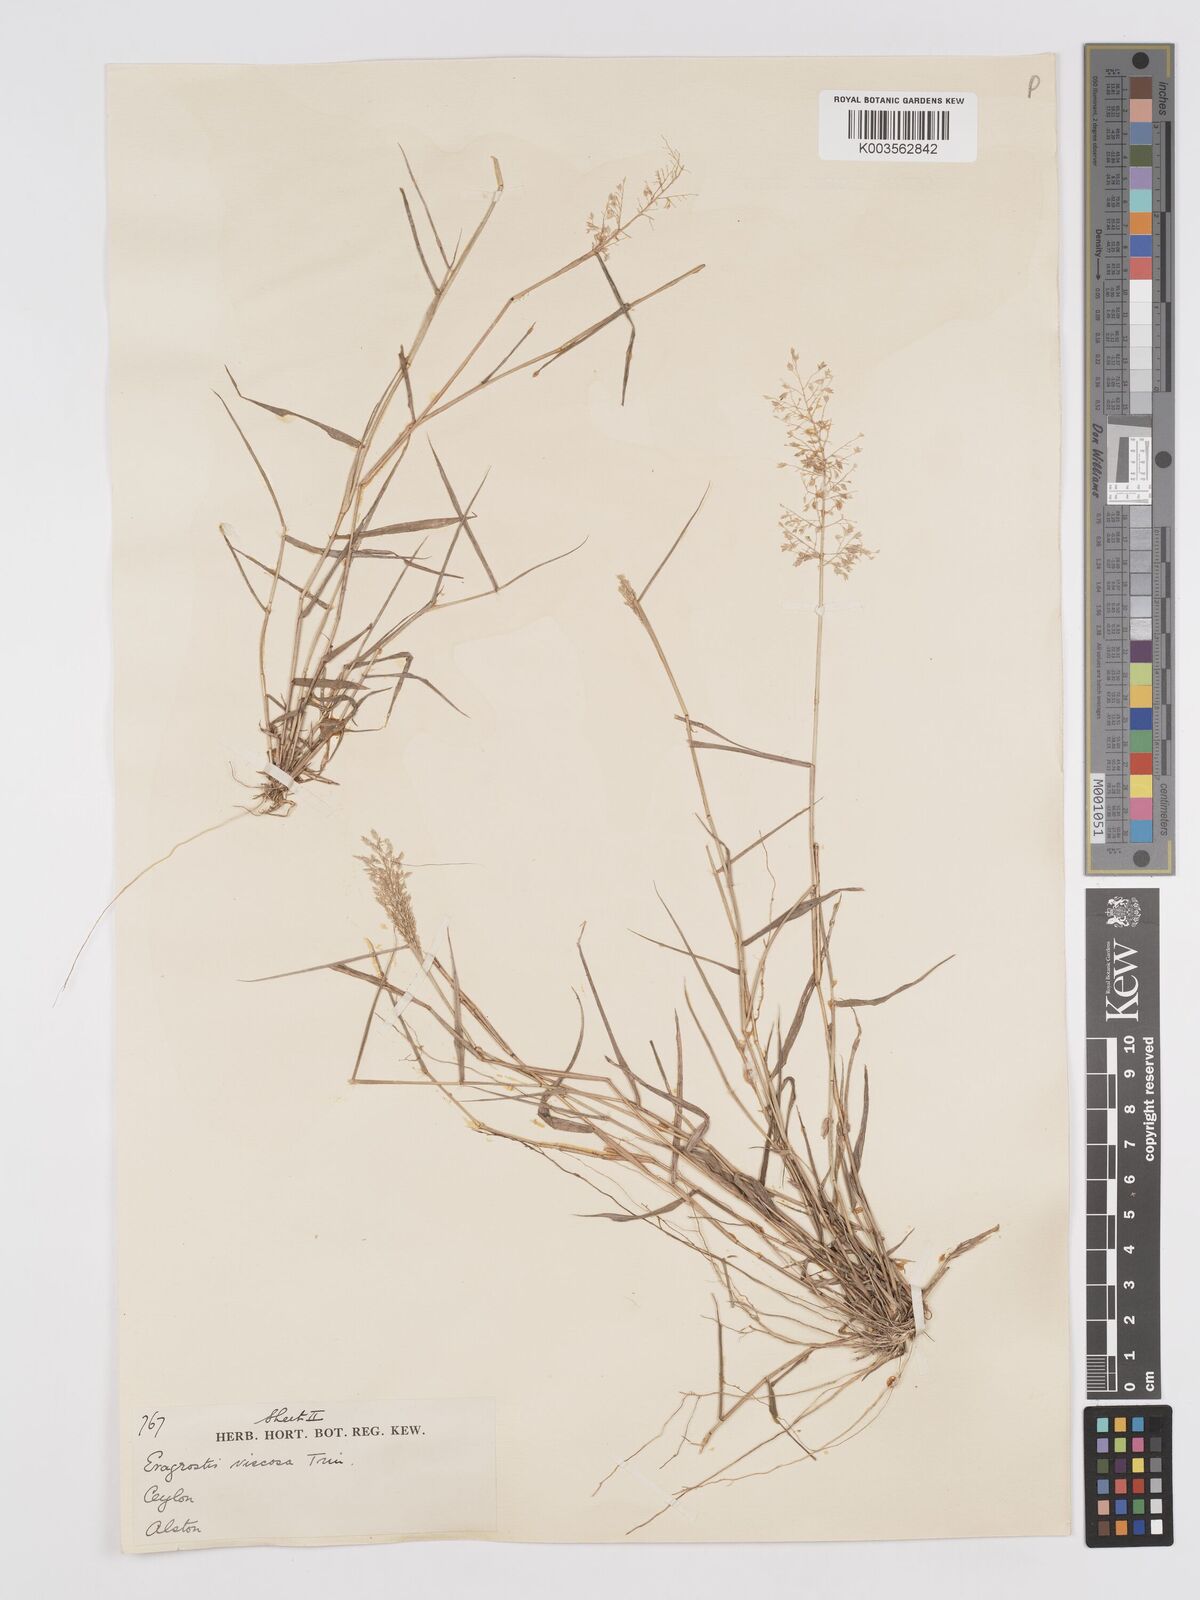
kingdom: Plantae
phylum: Tracheophyta
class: Liliopsida
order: Poales
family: Poaceae
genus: Eragrostis
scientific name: Eragrostis viscosa
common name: Sticky love grass
